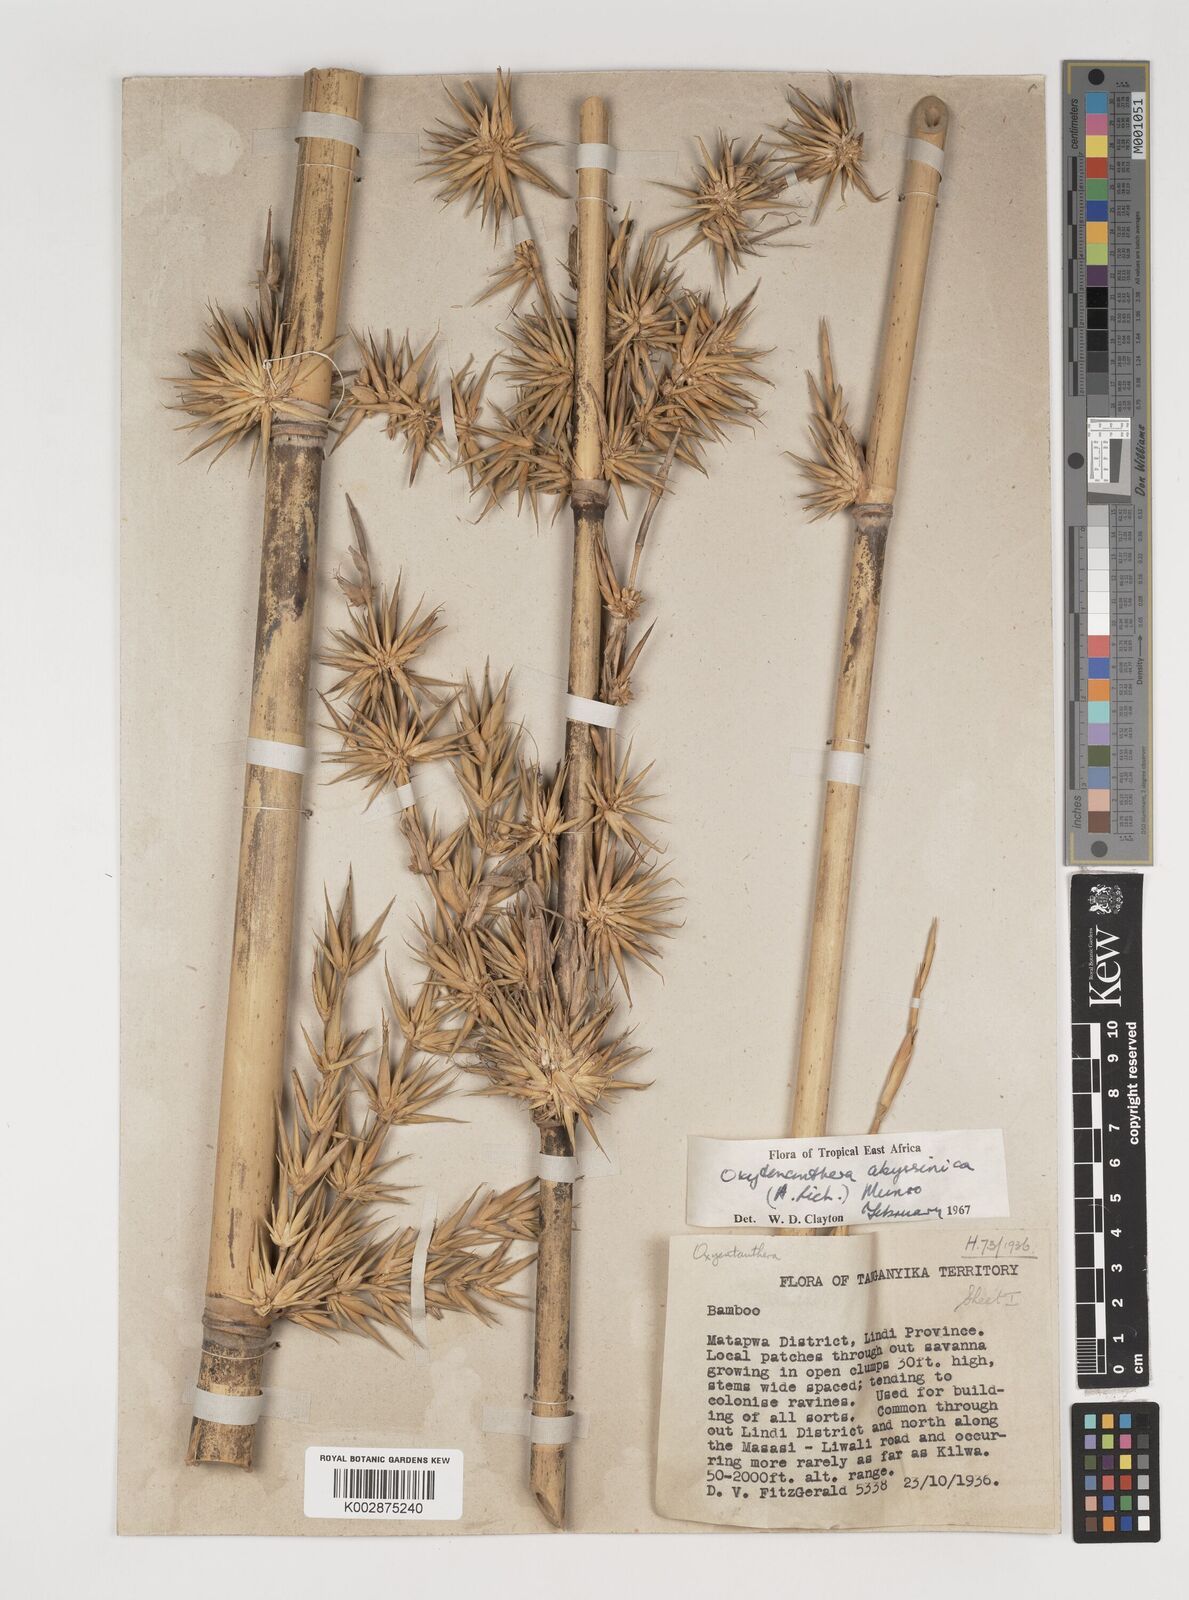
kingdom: Plantae
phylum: Tracheophyta
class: Liliopsida
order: Poales
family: Poaceae
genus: Oxytenanthera
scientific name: Oxytenanthera
